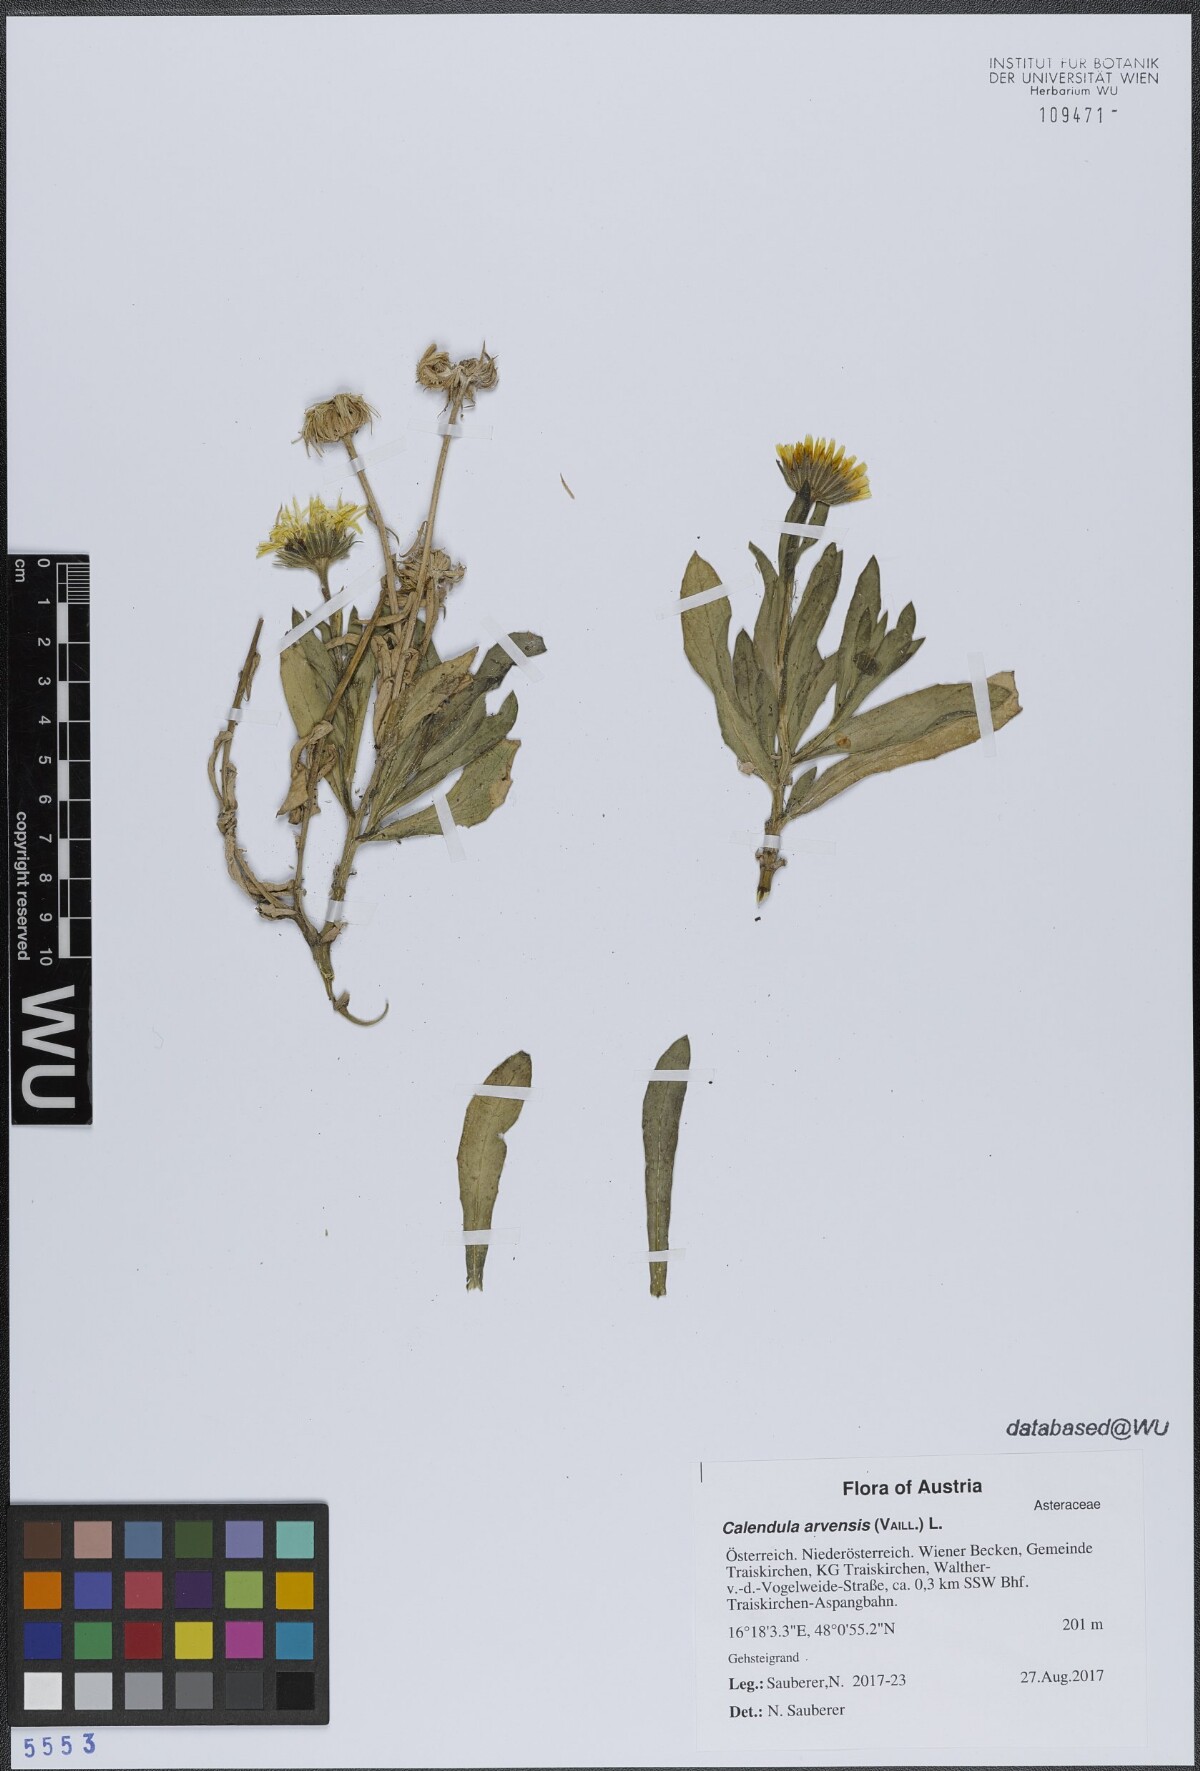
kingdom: Plantae
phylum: Tracheophyta
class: Magnoliopsida
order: Asterales
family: Asteraceae
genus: Calendula
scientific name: Calendula arvensis
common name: Field marigold
